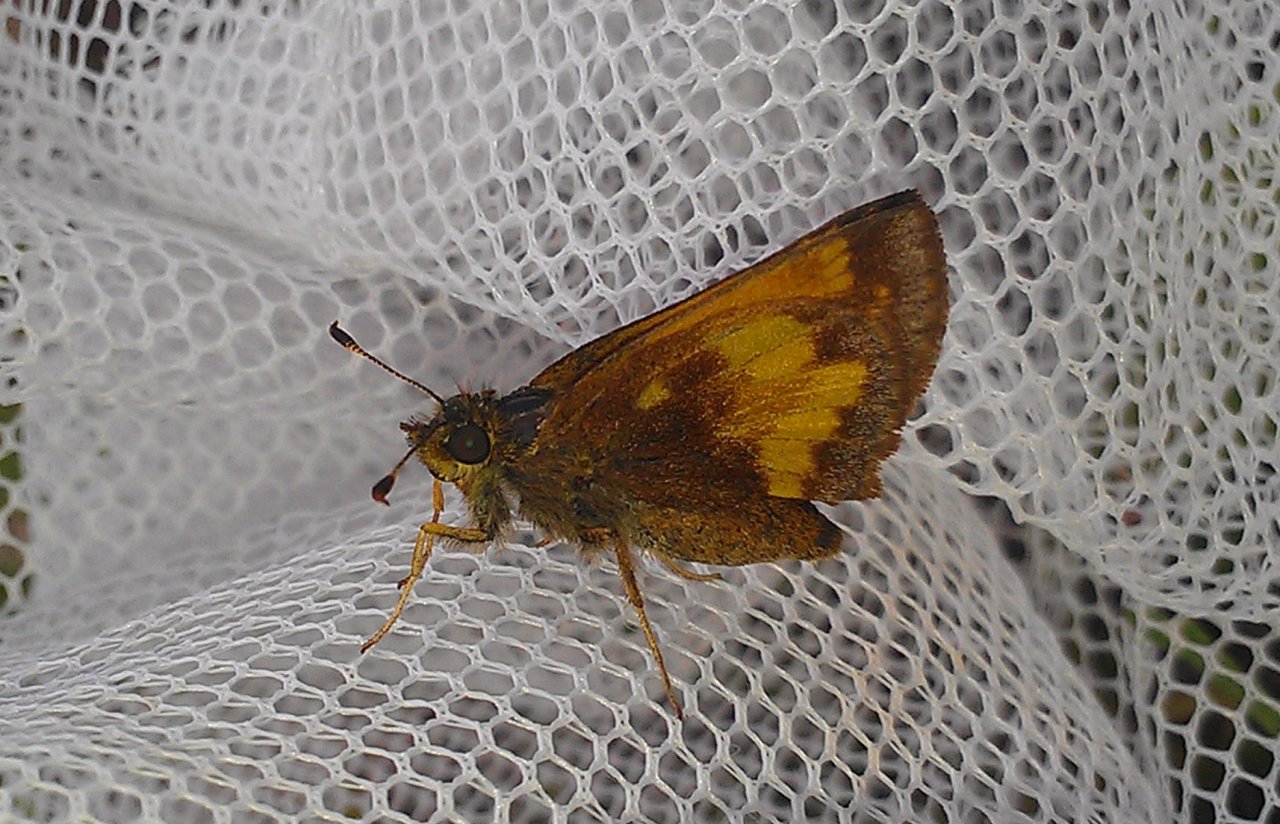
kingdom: Animalia
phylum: Arthropoda
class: Insecta
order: Lepidoptera
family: Hesperiidae
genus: Polites
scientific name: Polites coras
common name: Peck's Skipper
